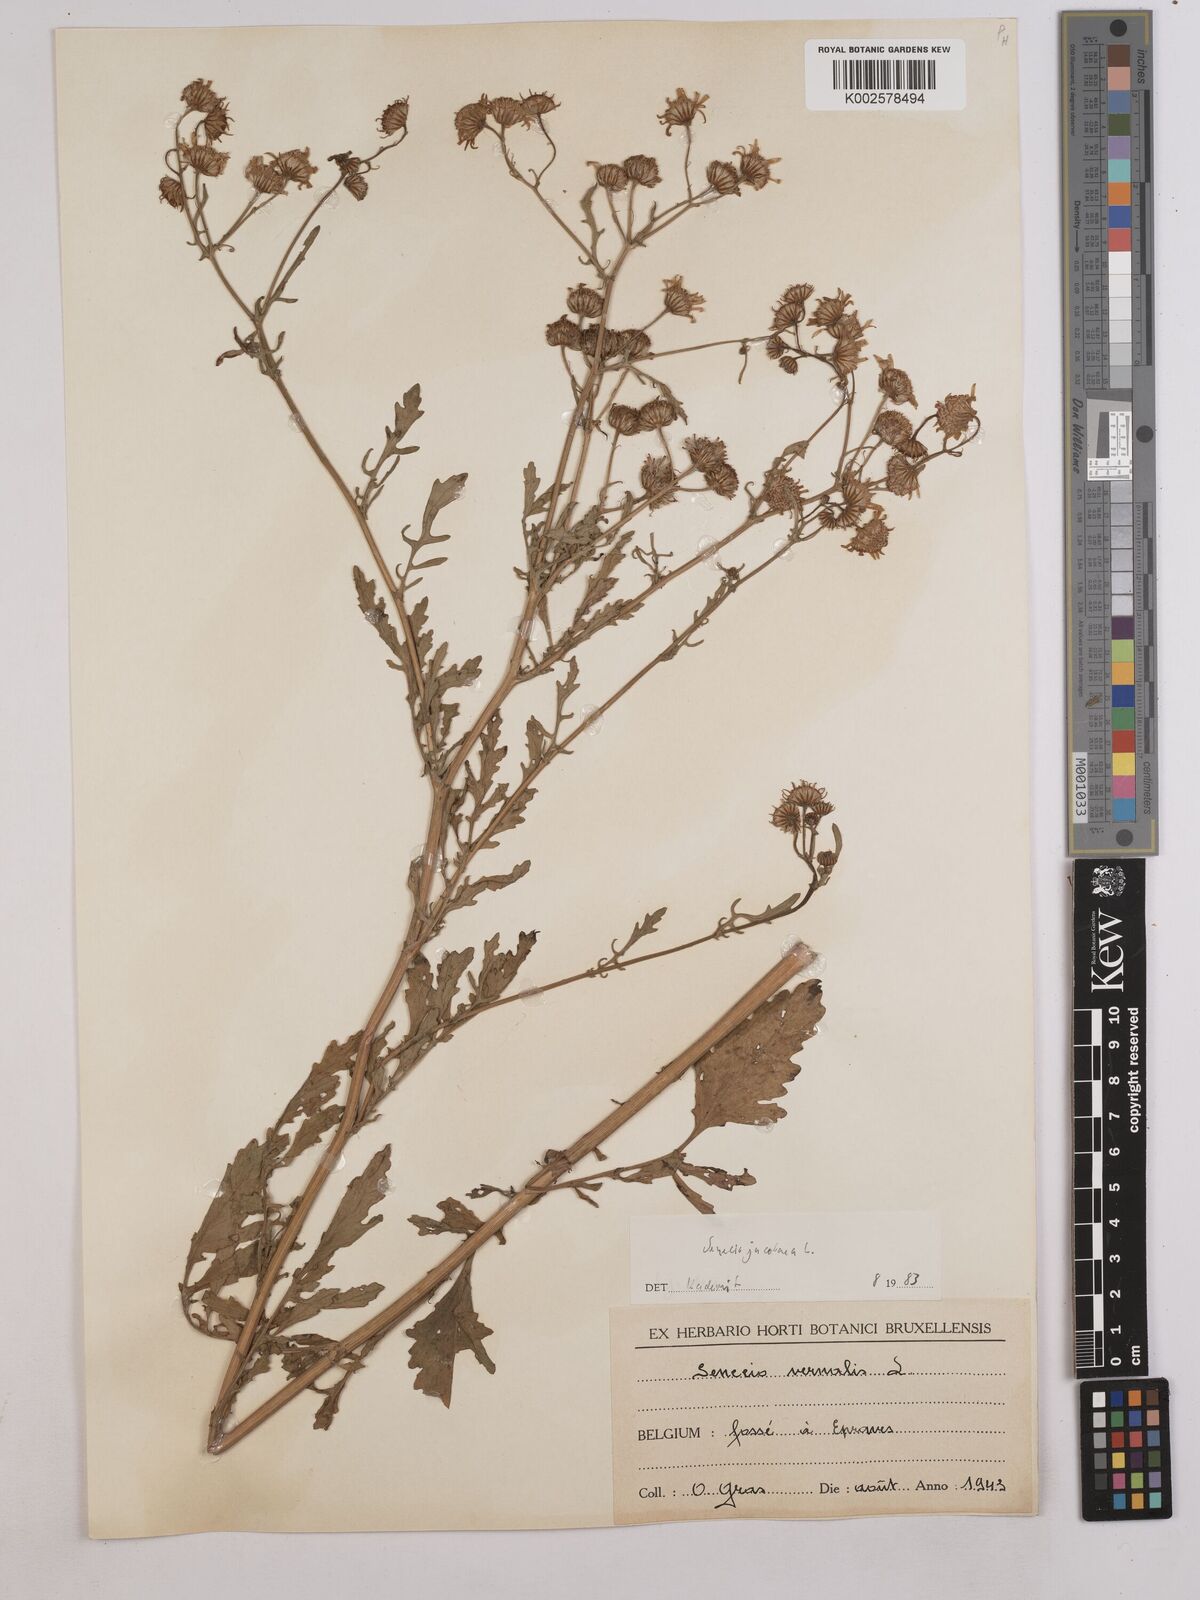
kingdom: Plantae
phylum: Tracheophyta
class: Magnoliopsida
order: Asterales
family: Asteraceae
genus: Jacobaea
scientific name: Jacobaea vulgaris
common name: Stinking willie
